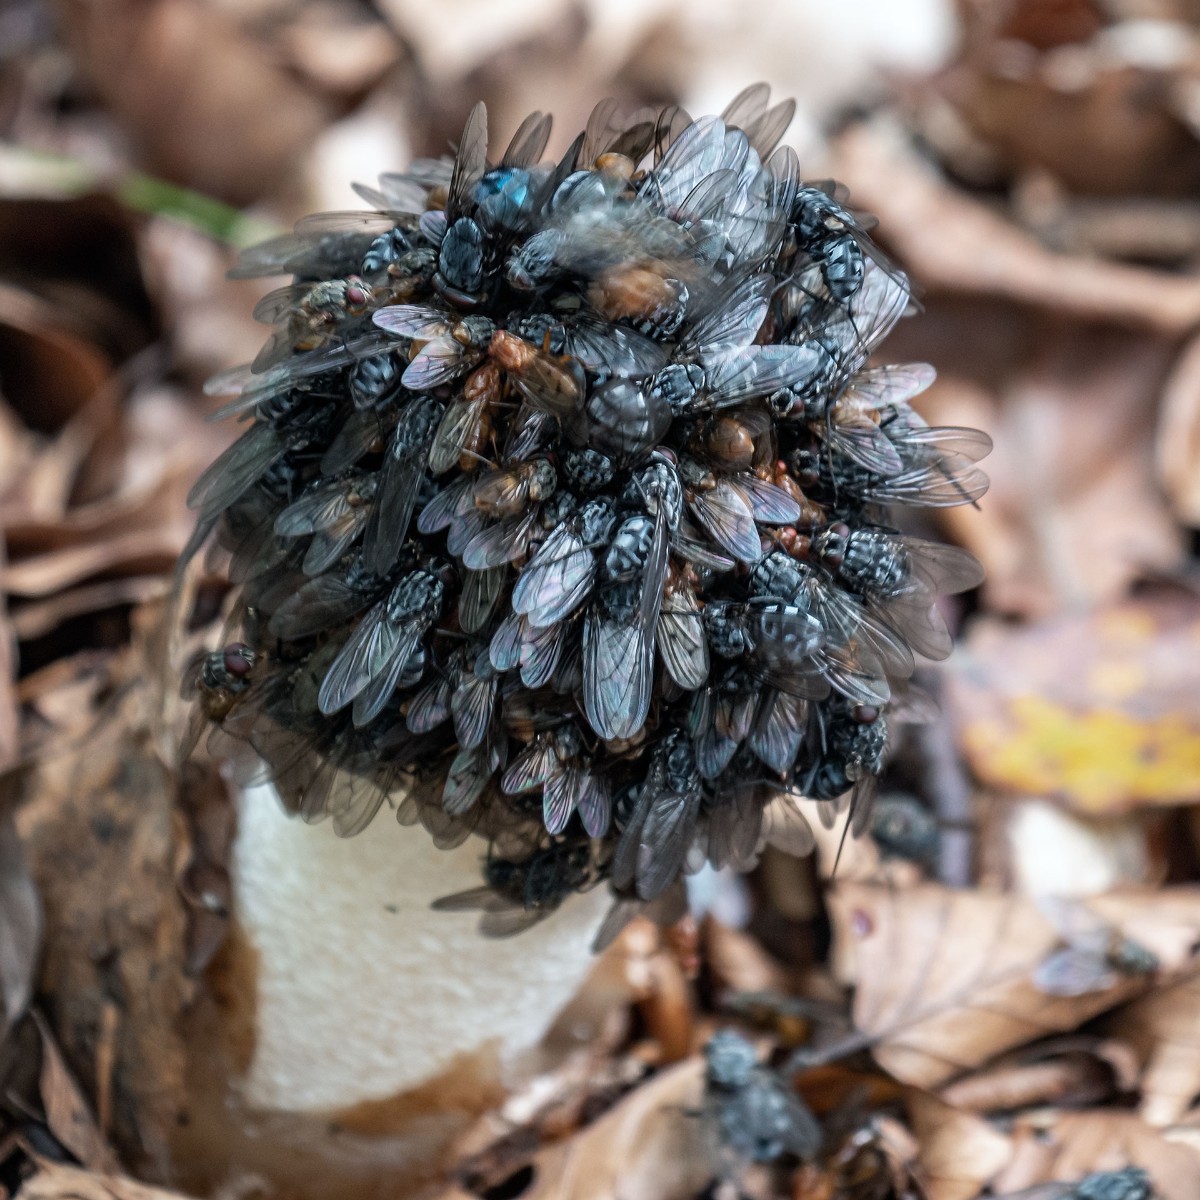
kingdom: Fungi
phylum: Basidiomycota
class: Agaricomycetes
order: Phallales
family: Phallaceae
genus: Phallus
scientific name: Phallus impudicus
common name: almindelig stinksvamp
